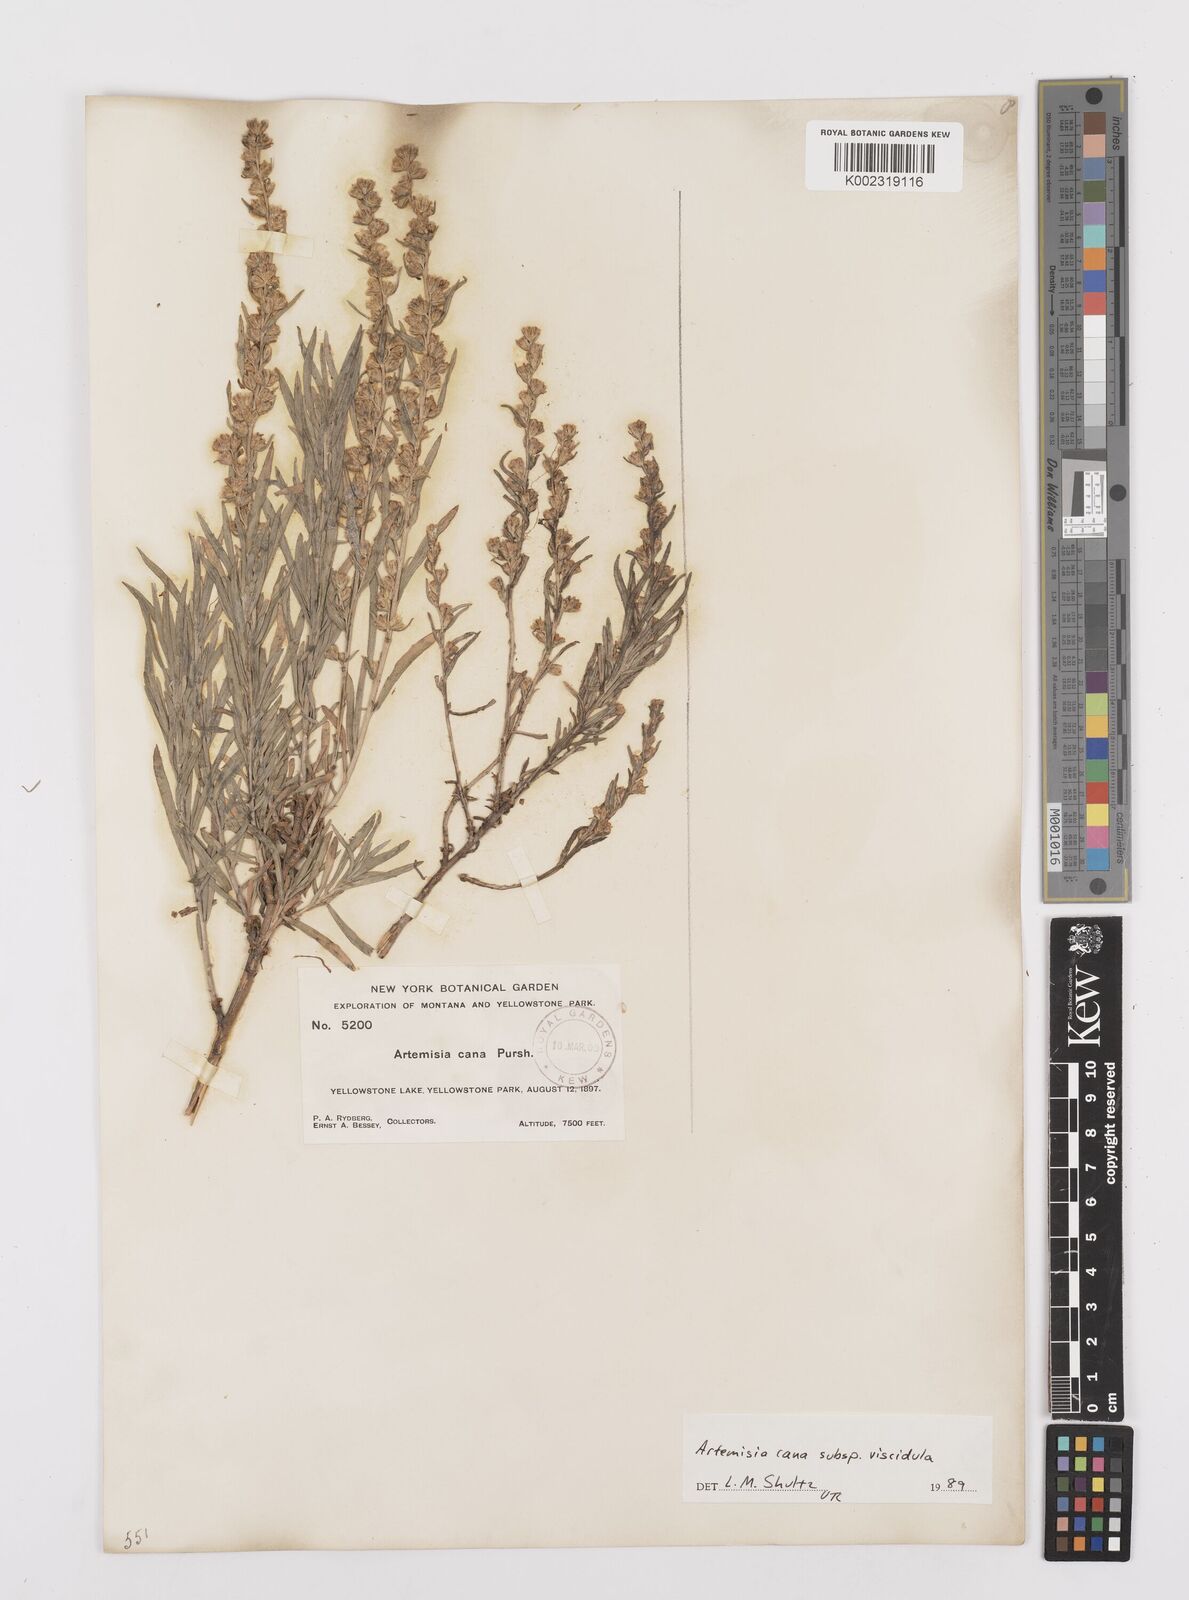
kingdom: Plantae
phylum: Tracheophyta
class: Magnoliopsida
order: Asterales
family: Asteraceae
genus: Artemisia
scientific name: Artemisia cana
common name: Silver sagebrush
